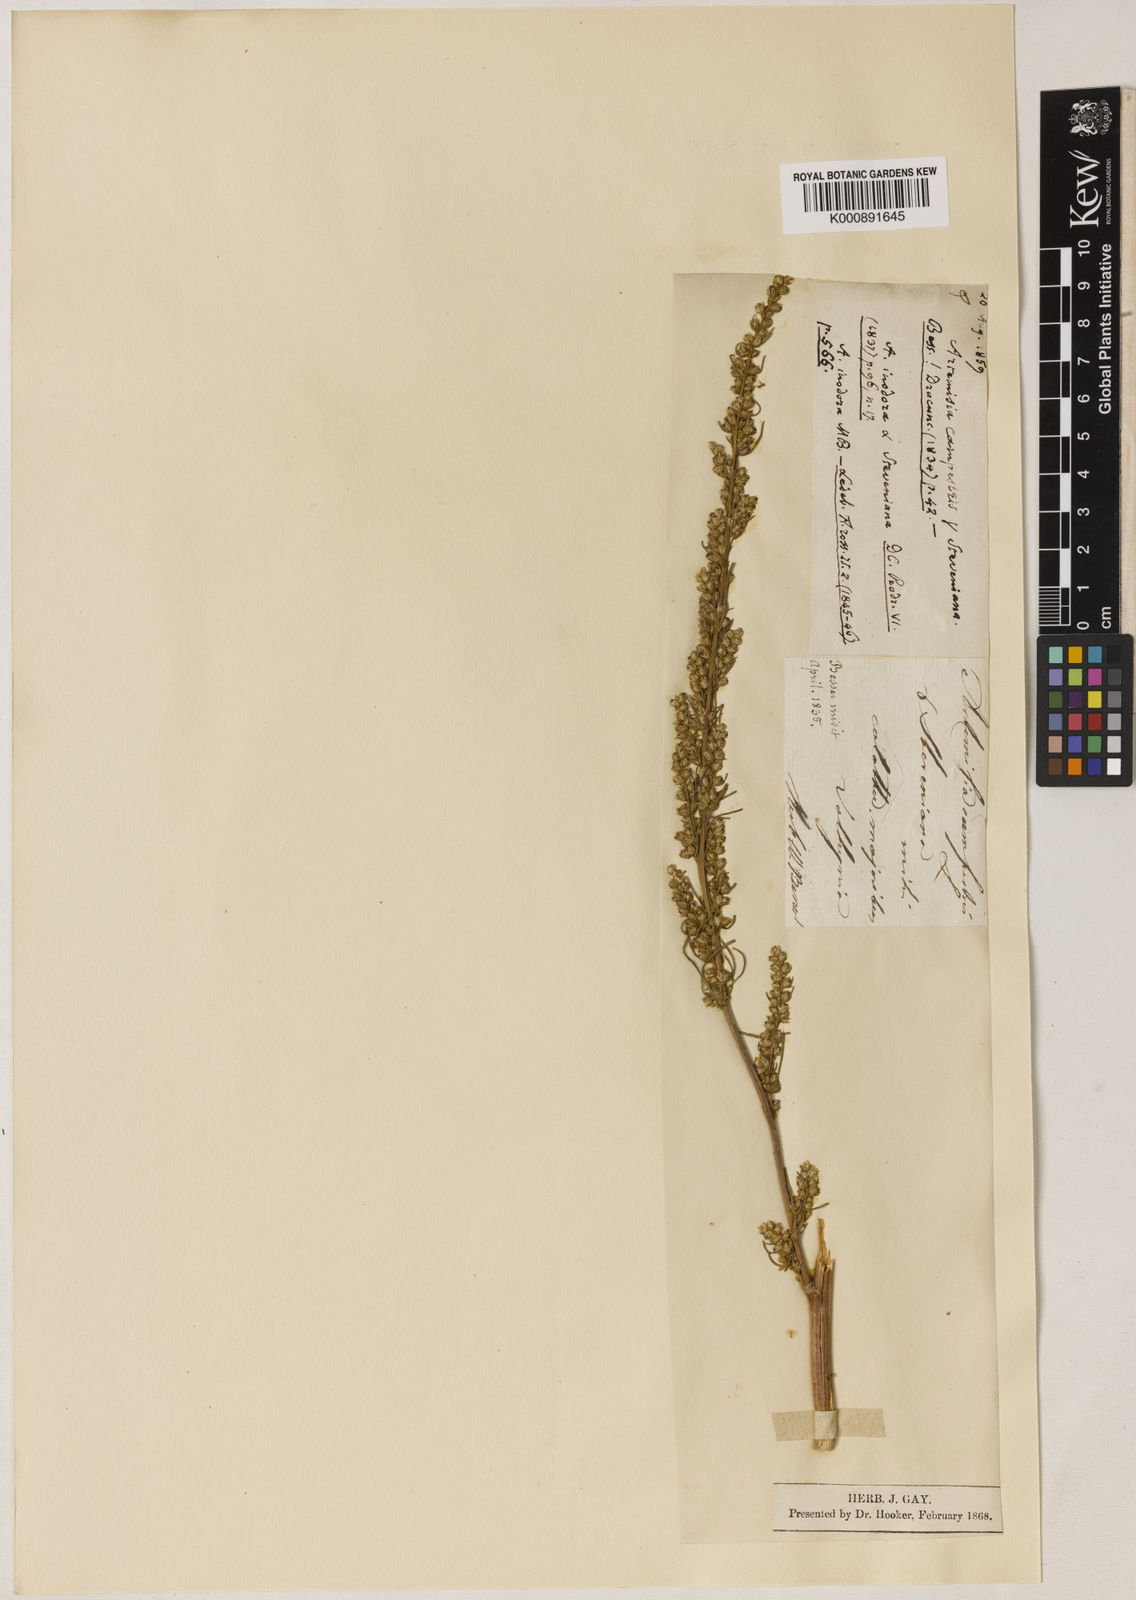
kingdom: Plantae
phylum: Tracheophyta
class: Magnoliopsida
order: Asterales
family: Asteraceae
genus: Artemisia
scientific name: Artemisia
